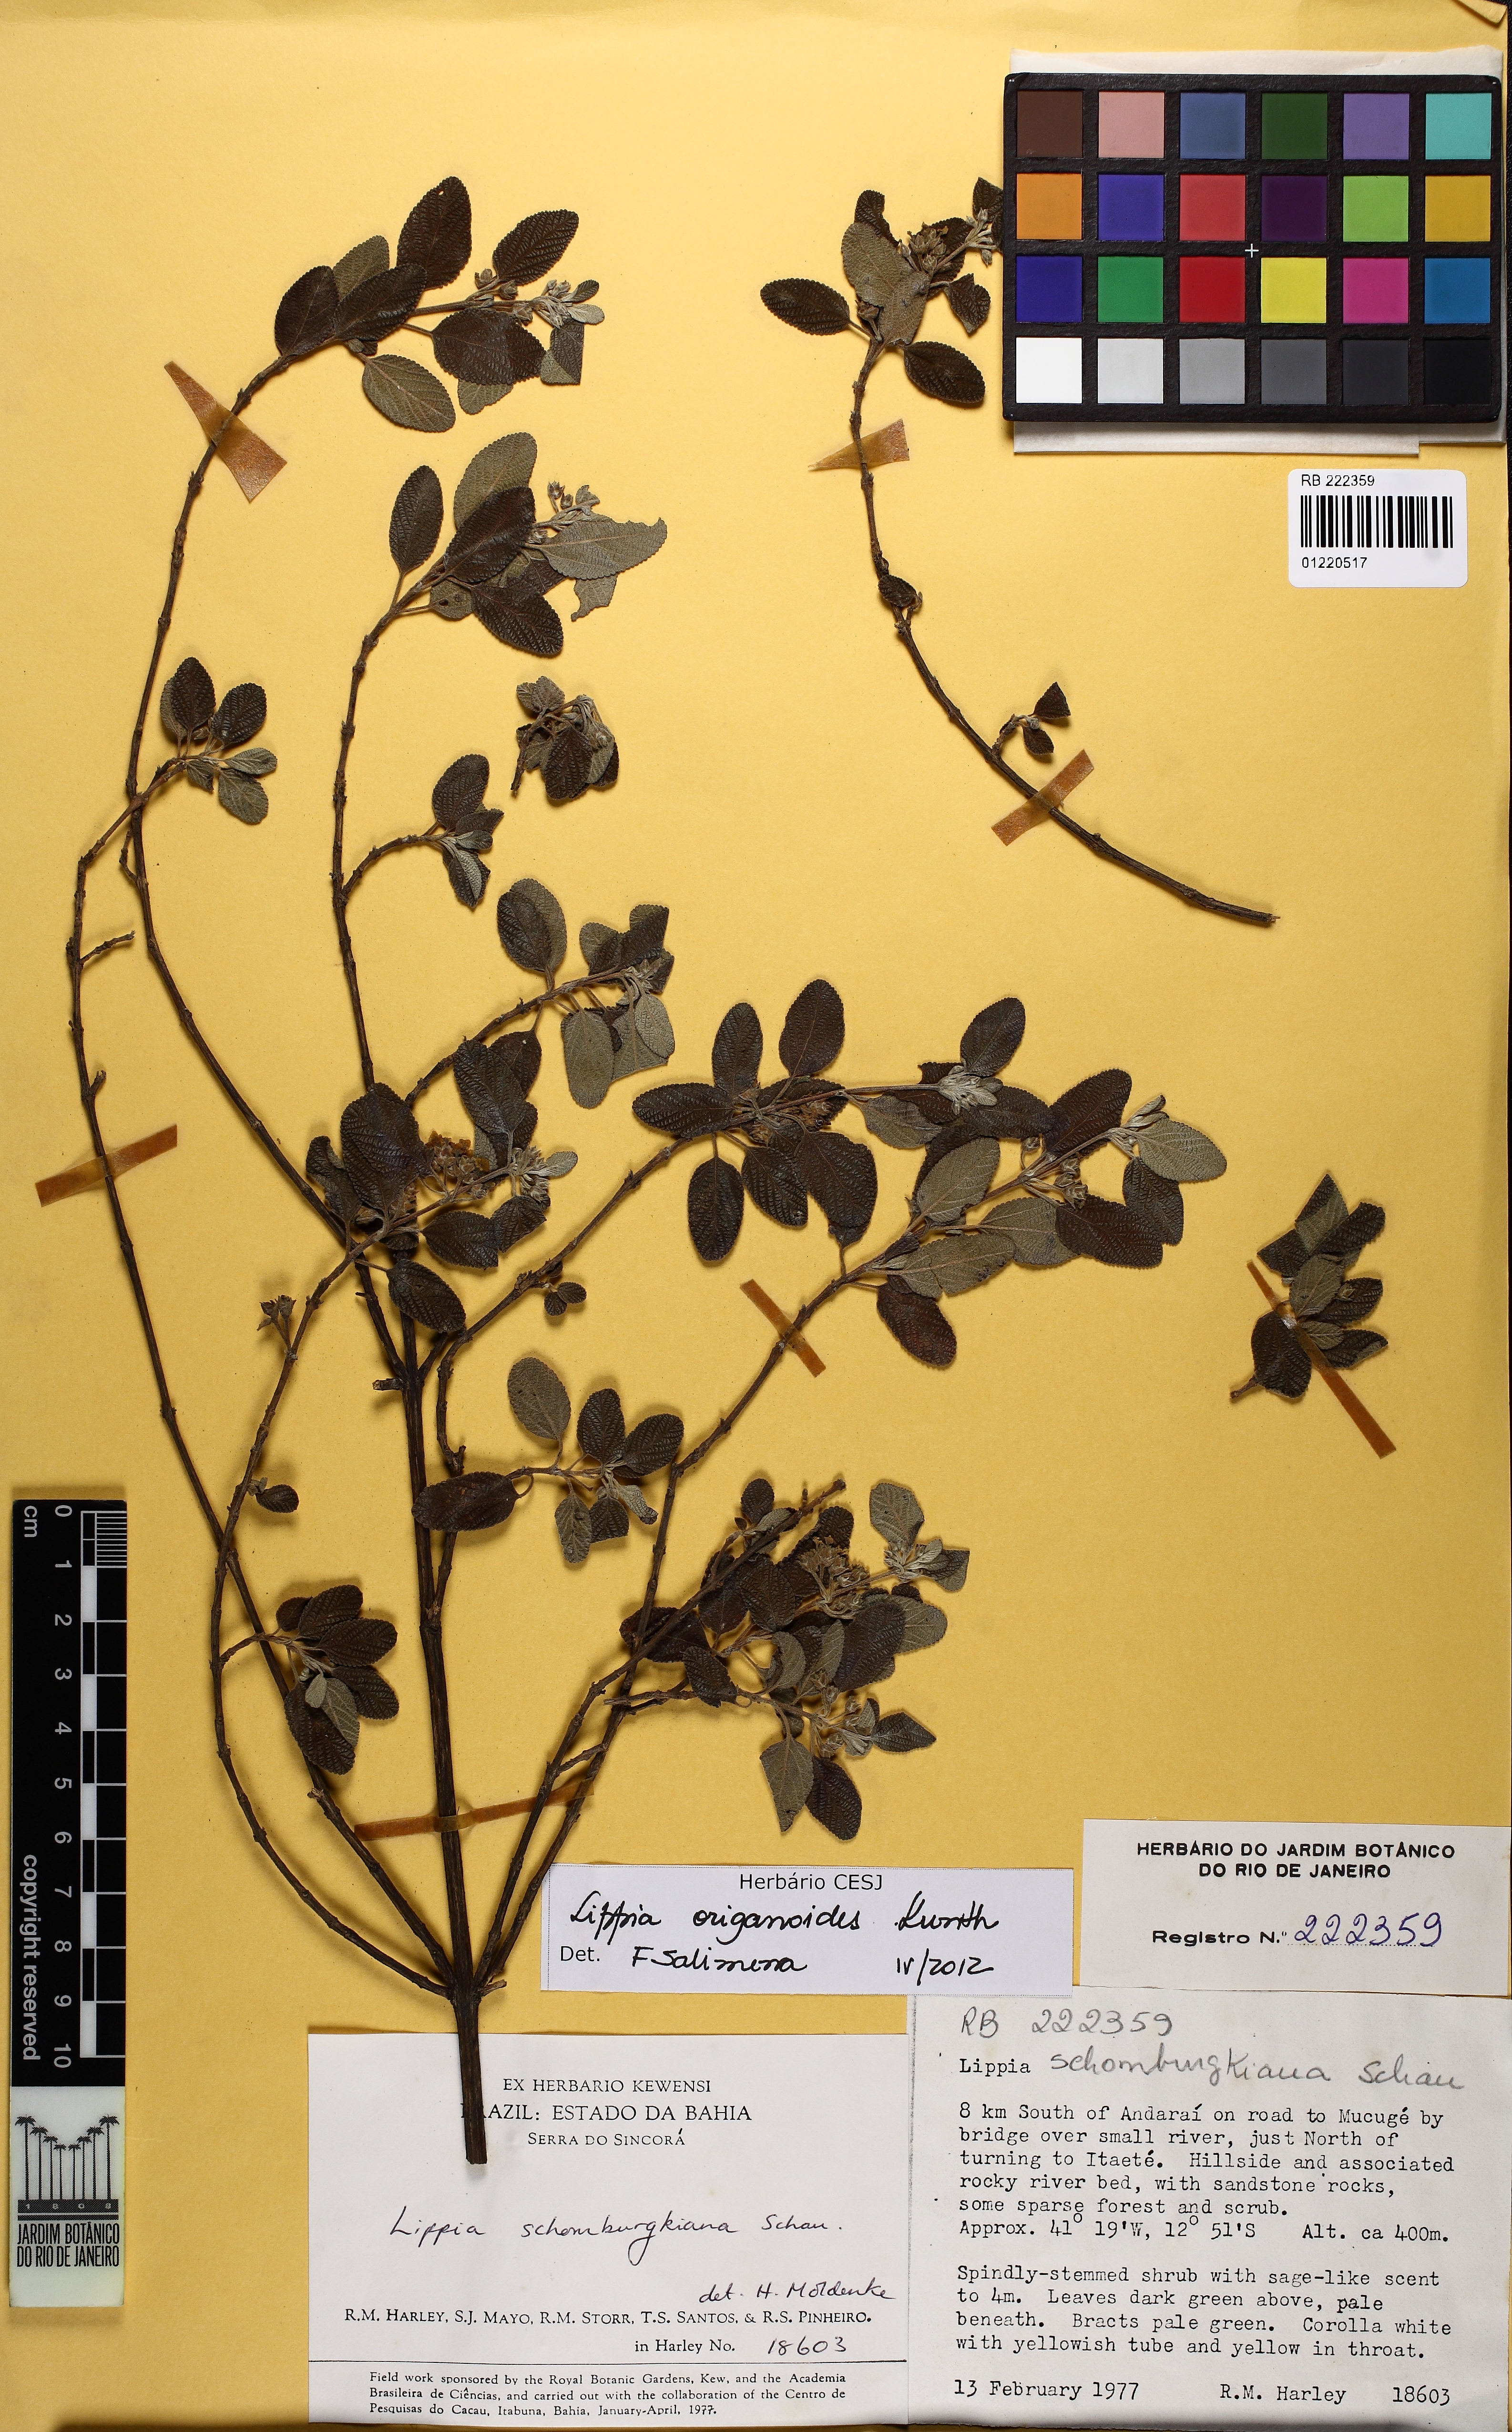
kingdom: Plantae
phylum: Tracheophyta
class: Magnoliopsida
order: Lamiales
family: Verbenaceae
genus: Lippia
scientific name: Lippia origanoides
